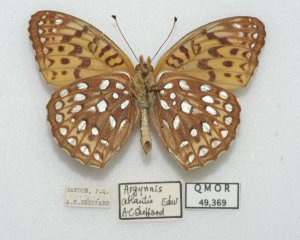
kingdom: Animalia
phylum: Arthropoda
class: Insecta
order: Lepidoptera
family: Nymphalidae
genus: Speyeria
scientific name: Speyeria atlantis
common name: Atlantis Fritillary
